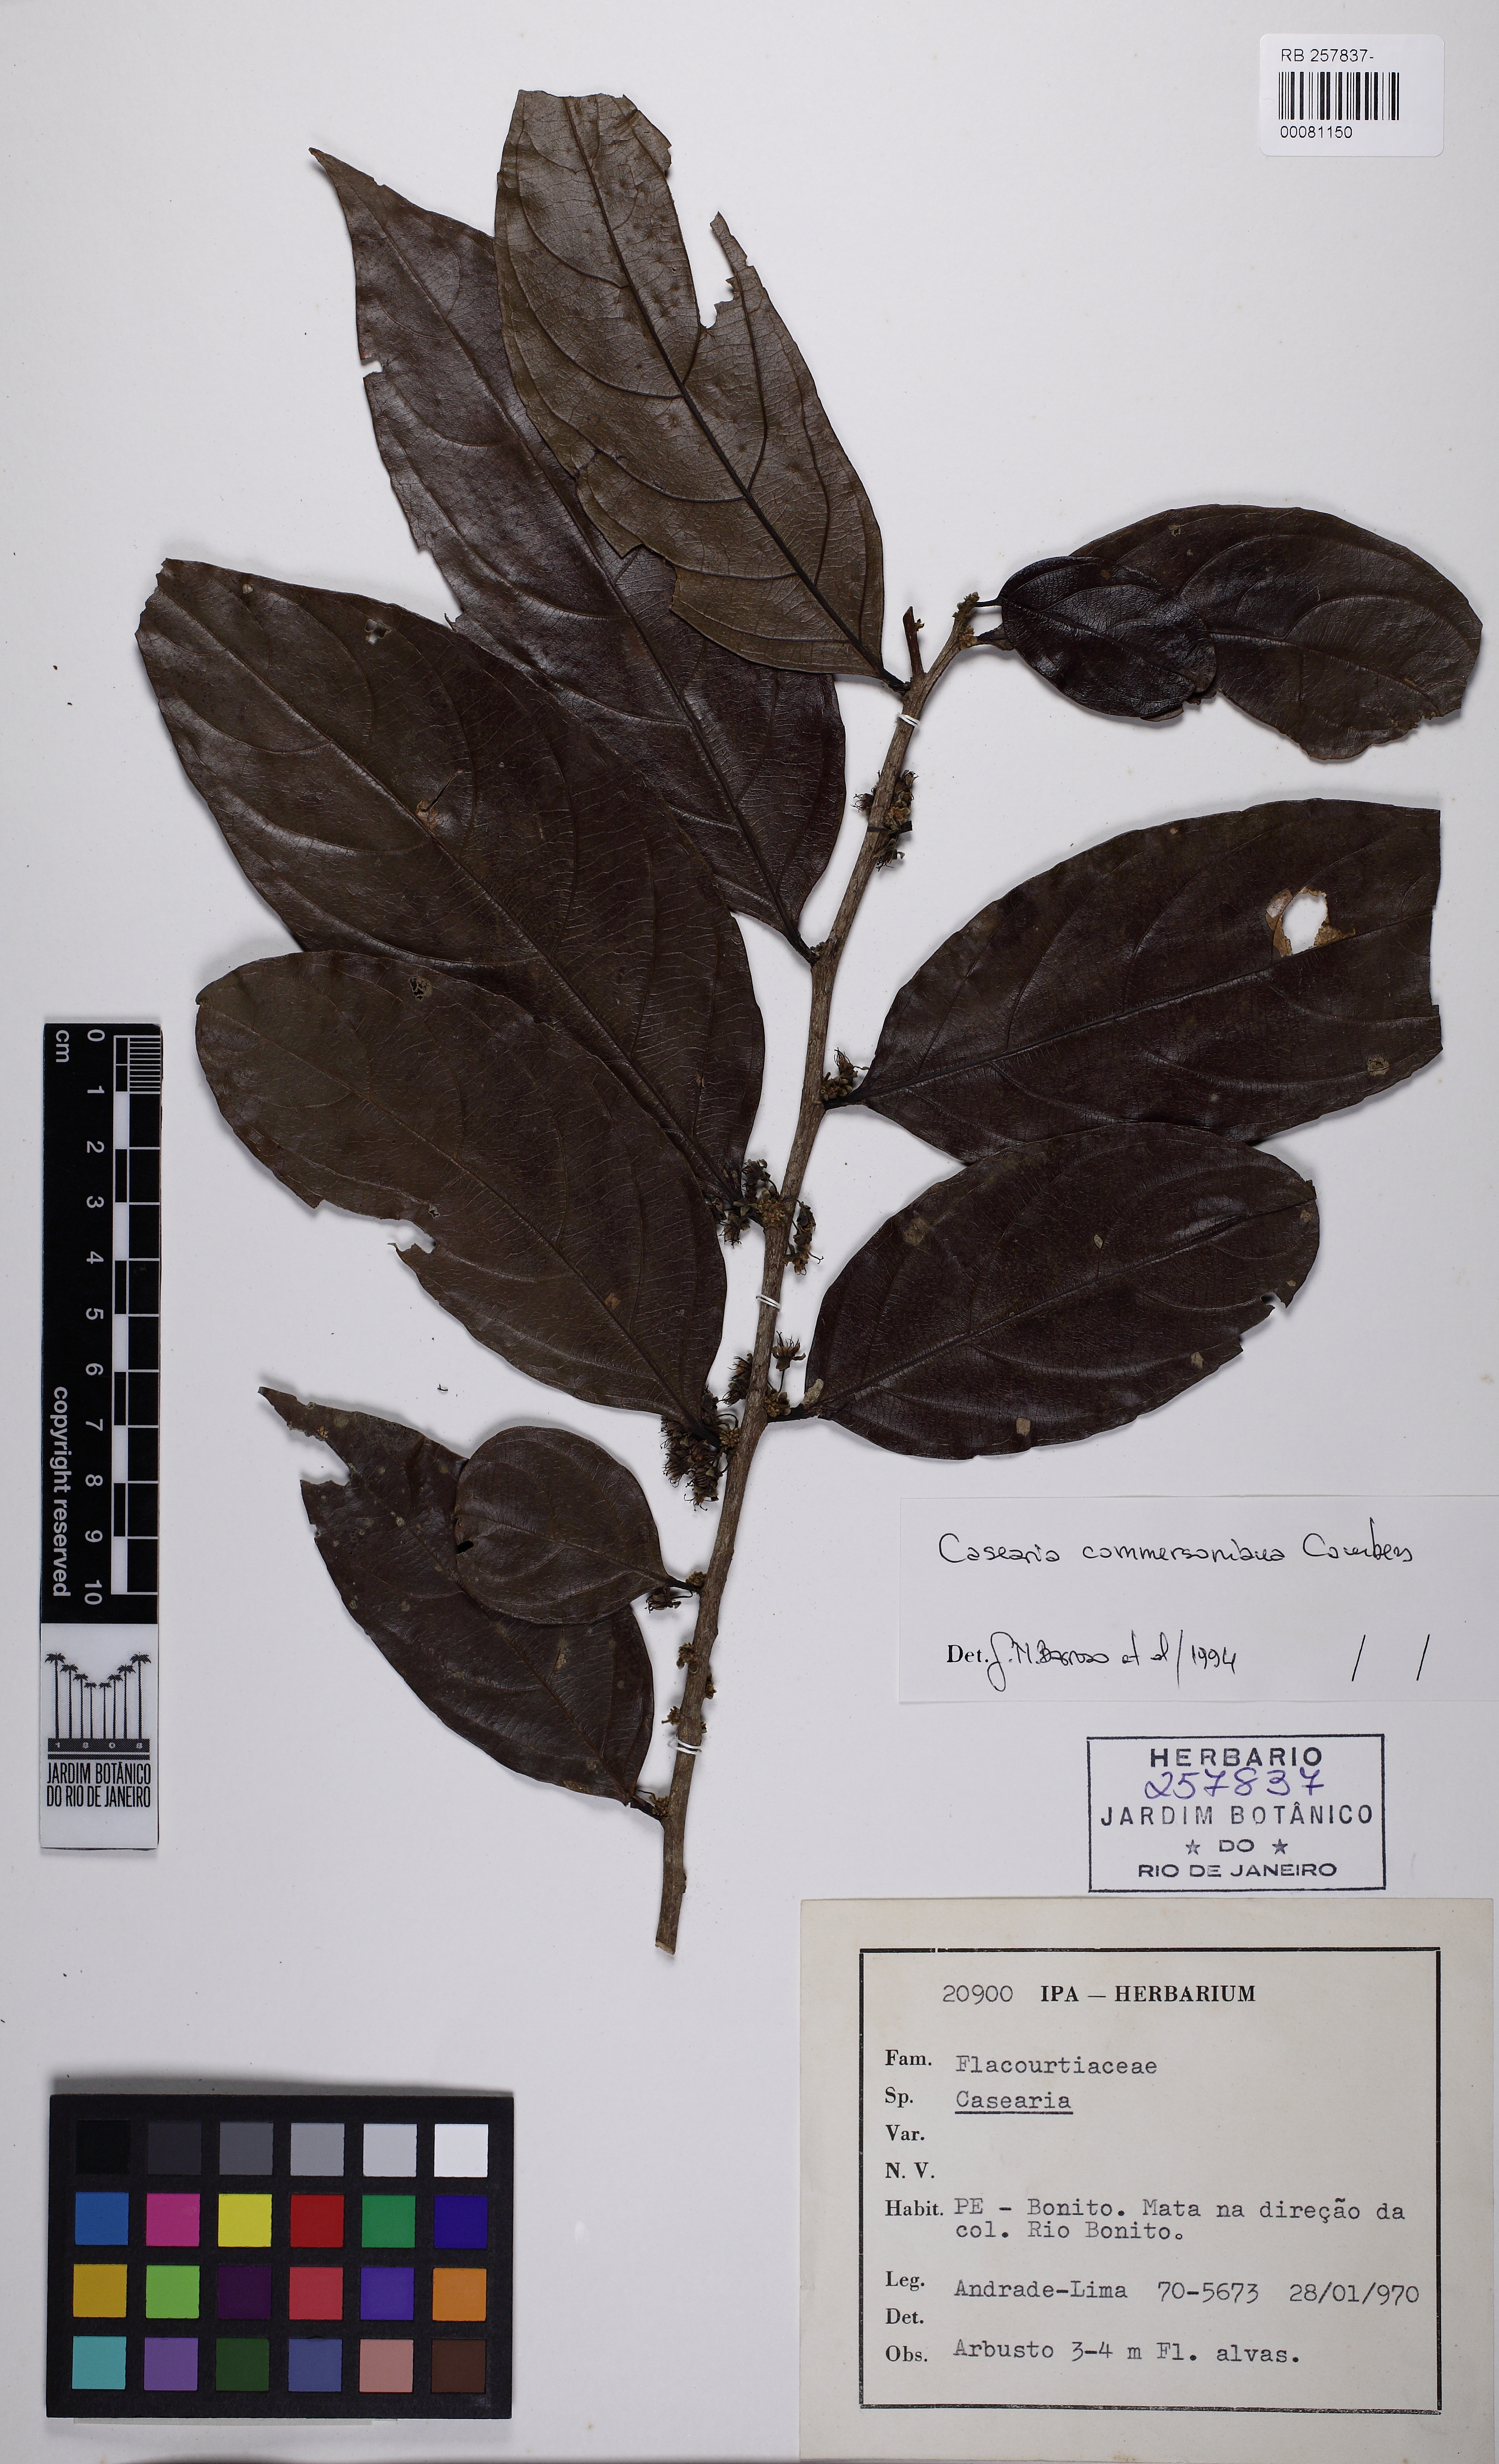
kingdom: Plantae
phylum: Tracheophyta
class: Magnoliopsida
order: Malpighiales
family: Salicaceae
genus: Piparea
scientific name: Piparea dentata
